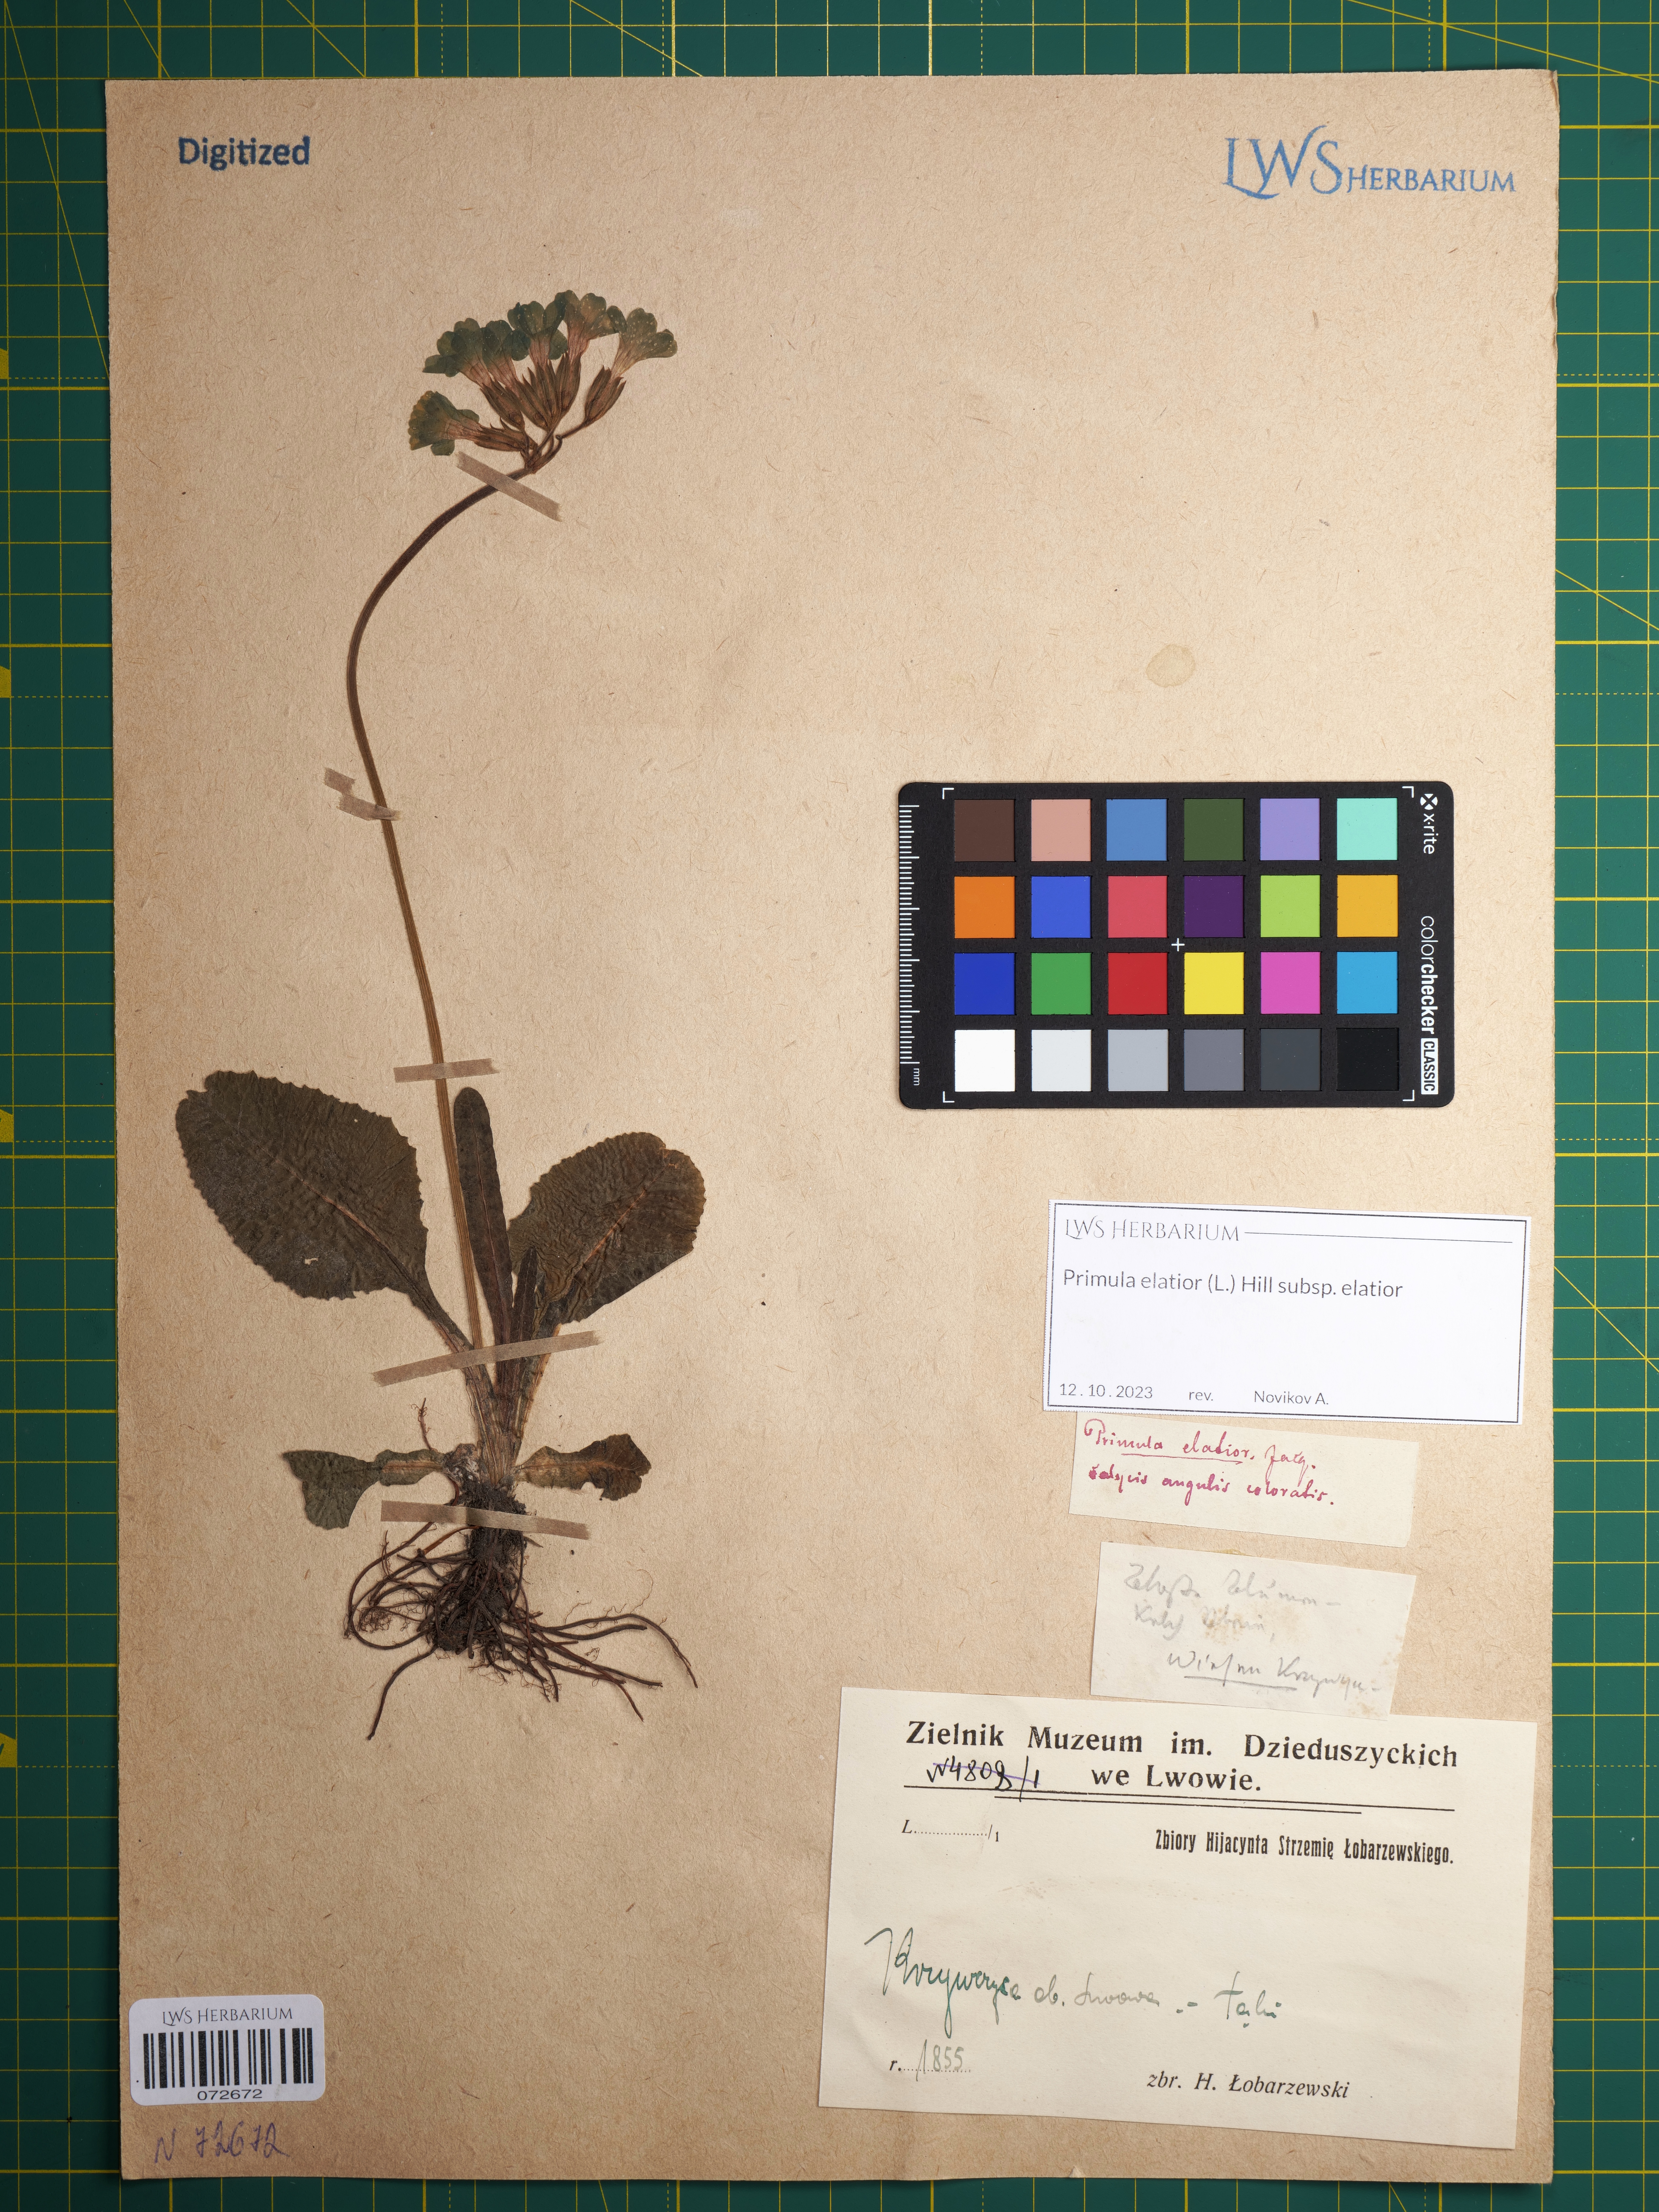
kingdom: Plantae
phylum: Tracheophyta
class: Magnoliopsida
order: Ericales
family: Primulaceae
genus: Primula
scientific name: Primula elatior
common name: Oxlip
